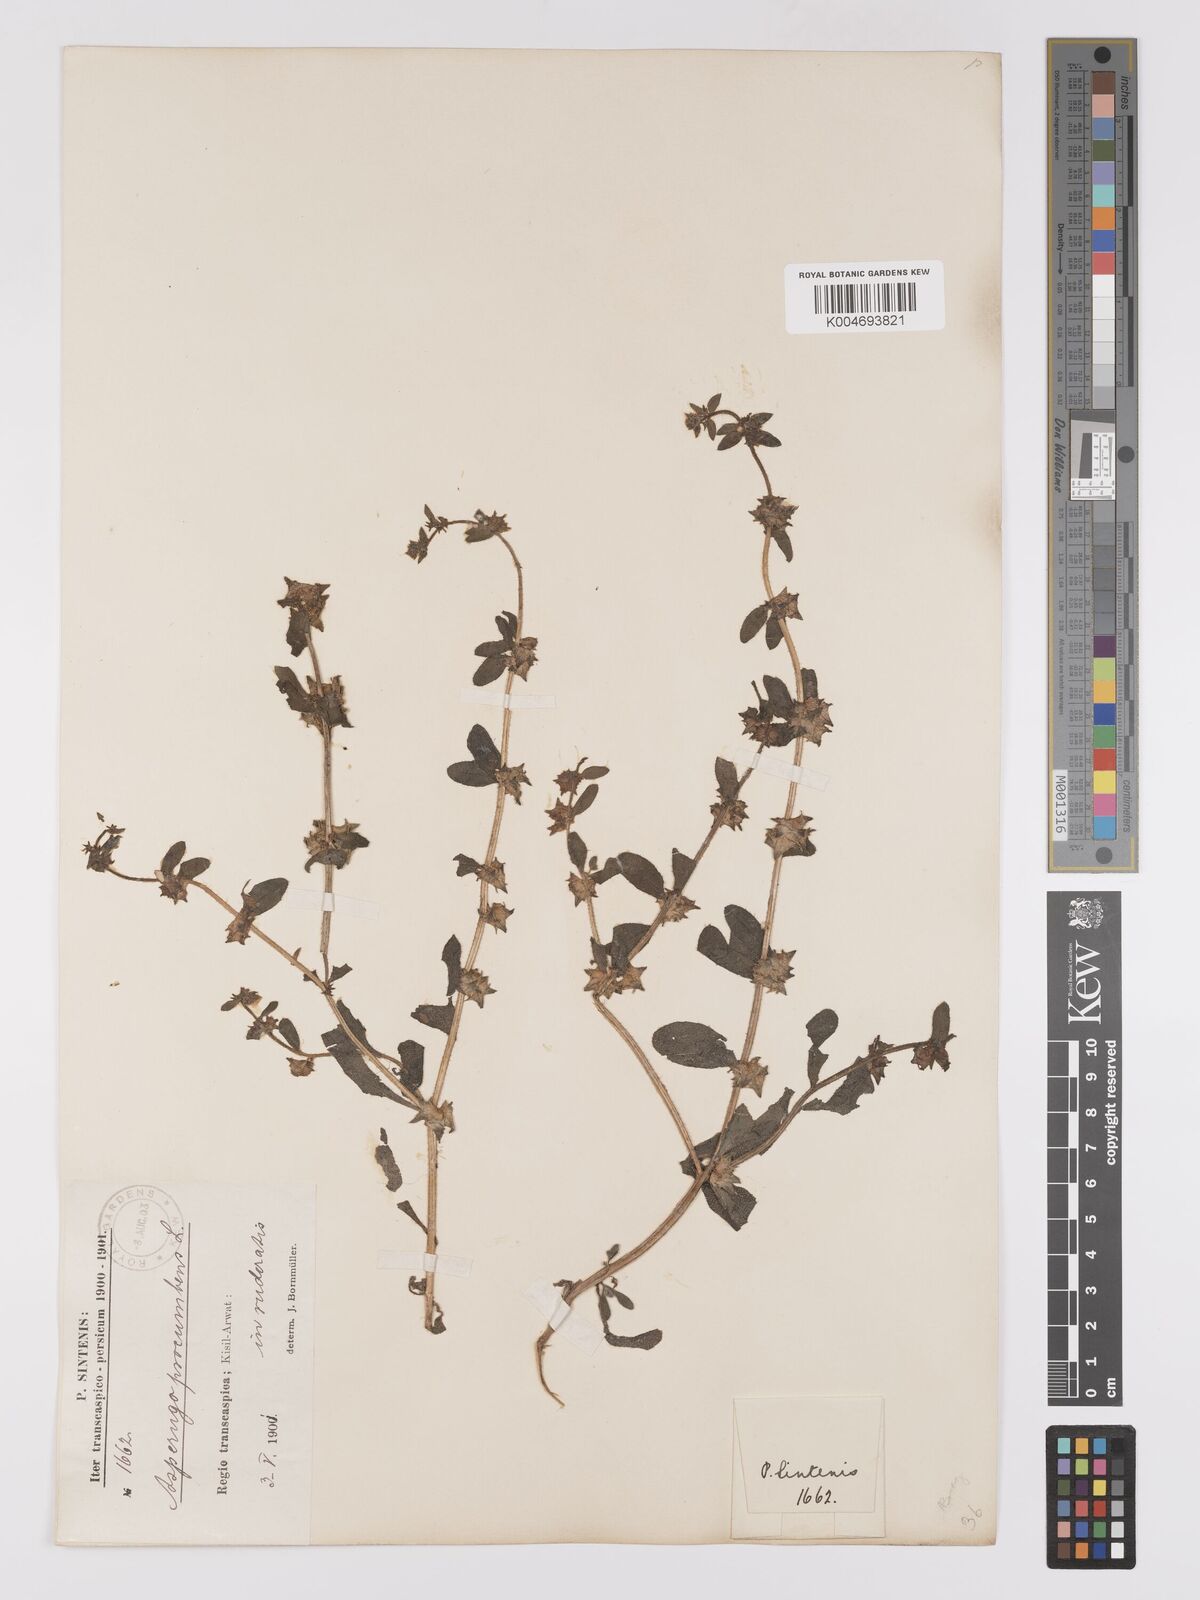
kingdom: Plantae
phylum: Tracheophyta
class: Magnoliopsida
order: Boraginales
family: Boraginaceae
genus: Asperugo
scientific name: Asperugo procumbens
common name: Madwort
